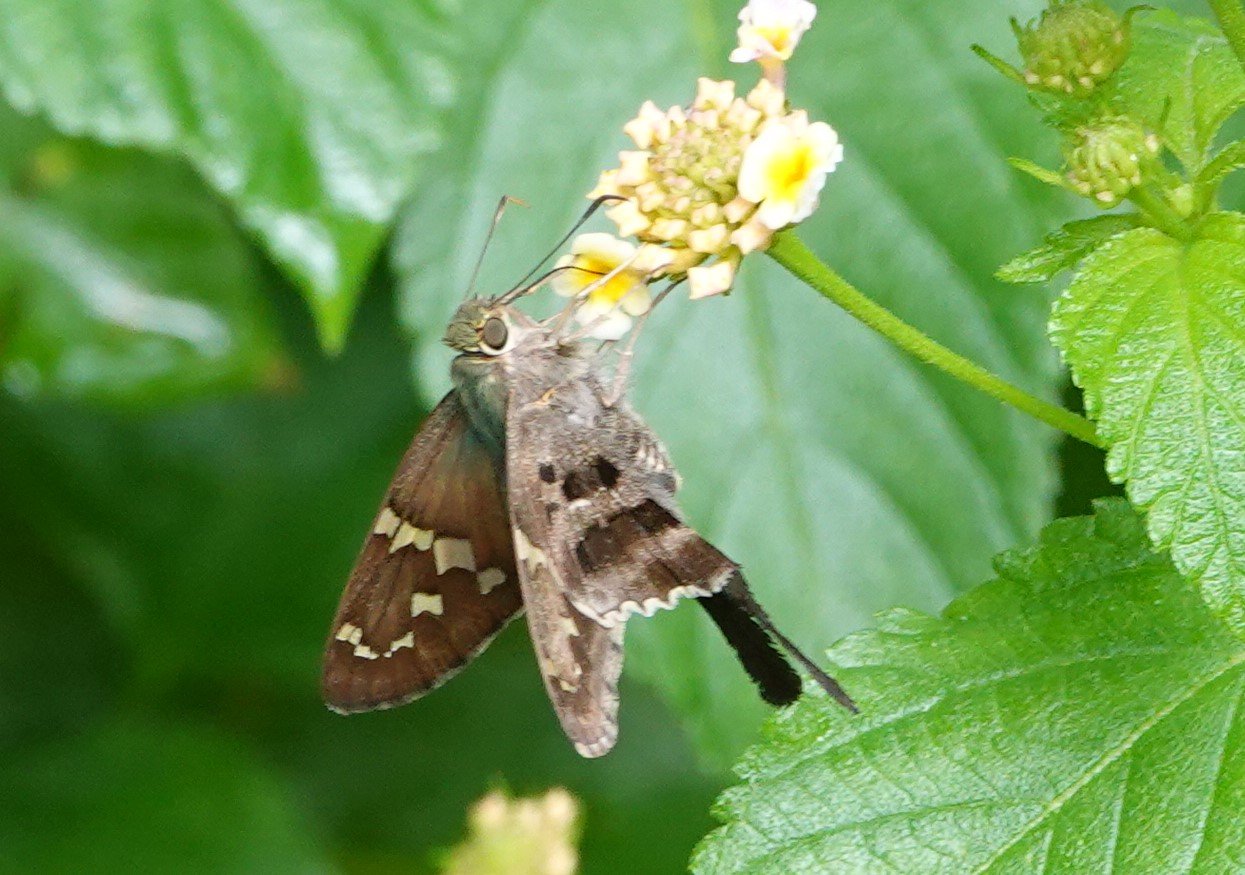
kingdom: Animalia
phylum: Arthropoda
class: Insecta
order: Lepidoptera
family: Hesperiidae
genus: Urbanus
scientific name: Urbanus proteus
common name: Long-tailed Skipper
